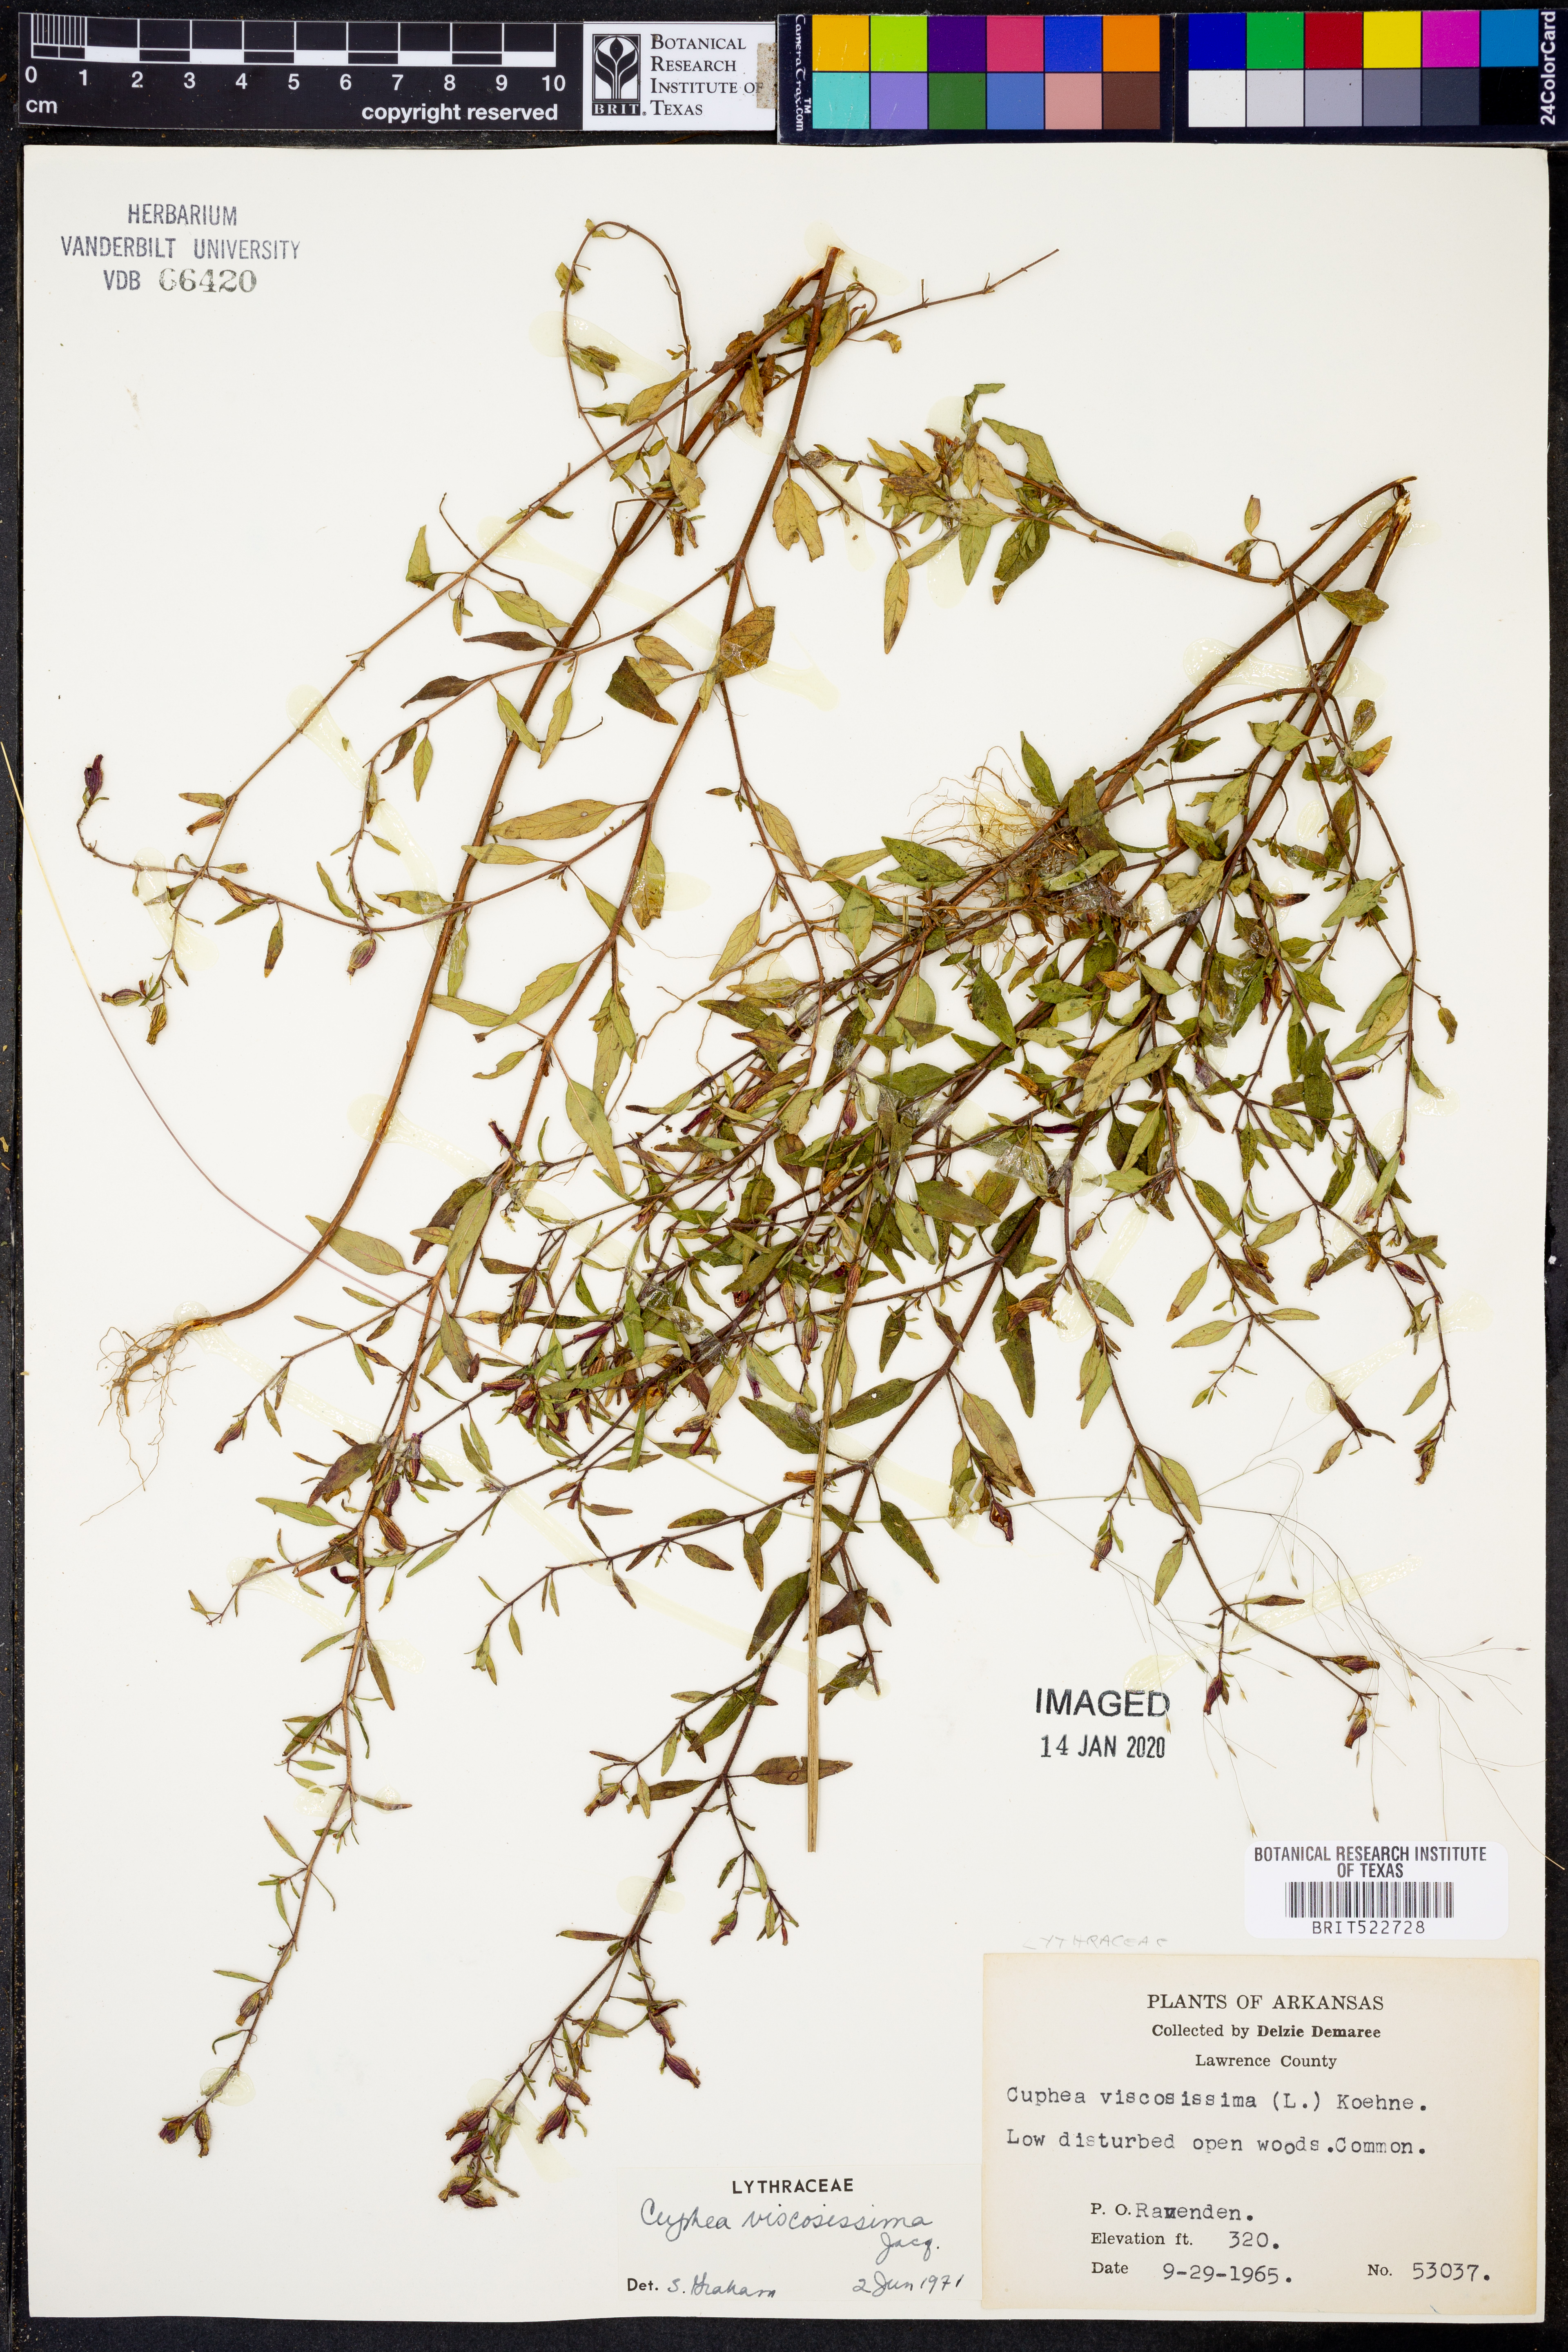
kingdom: Plantae
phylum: Tracheophyta
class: Magnoliopsida
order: Myrtales
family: Lythraceae
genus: Cuphea
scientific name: Cuphea viscosissima
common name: Clammy cuphea
